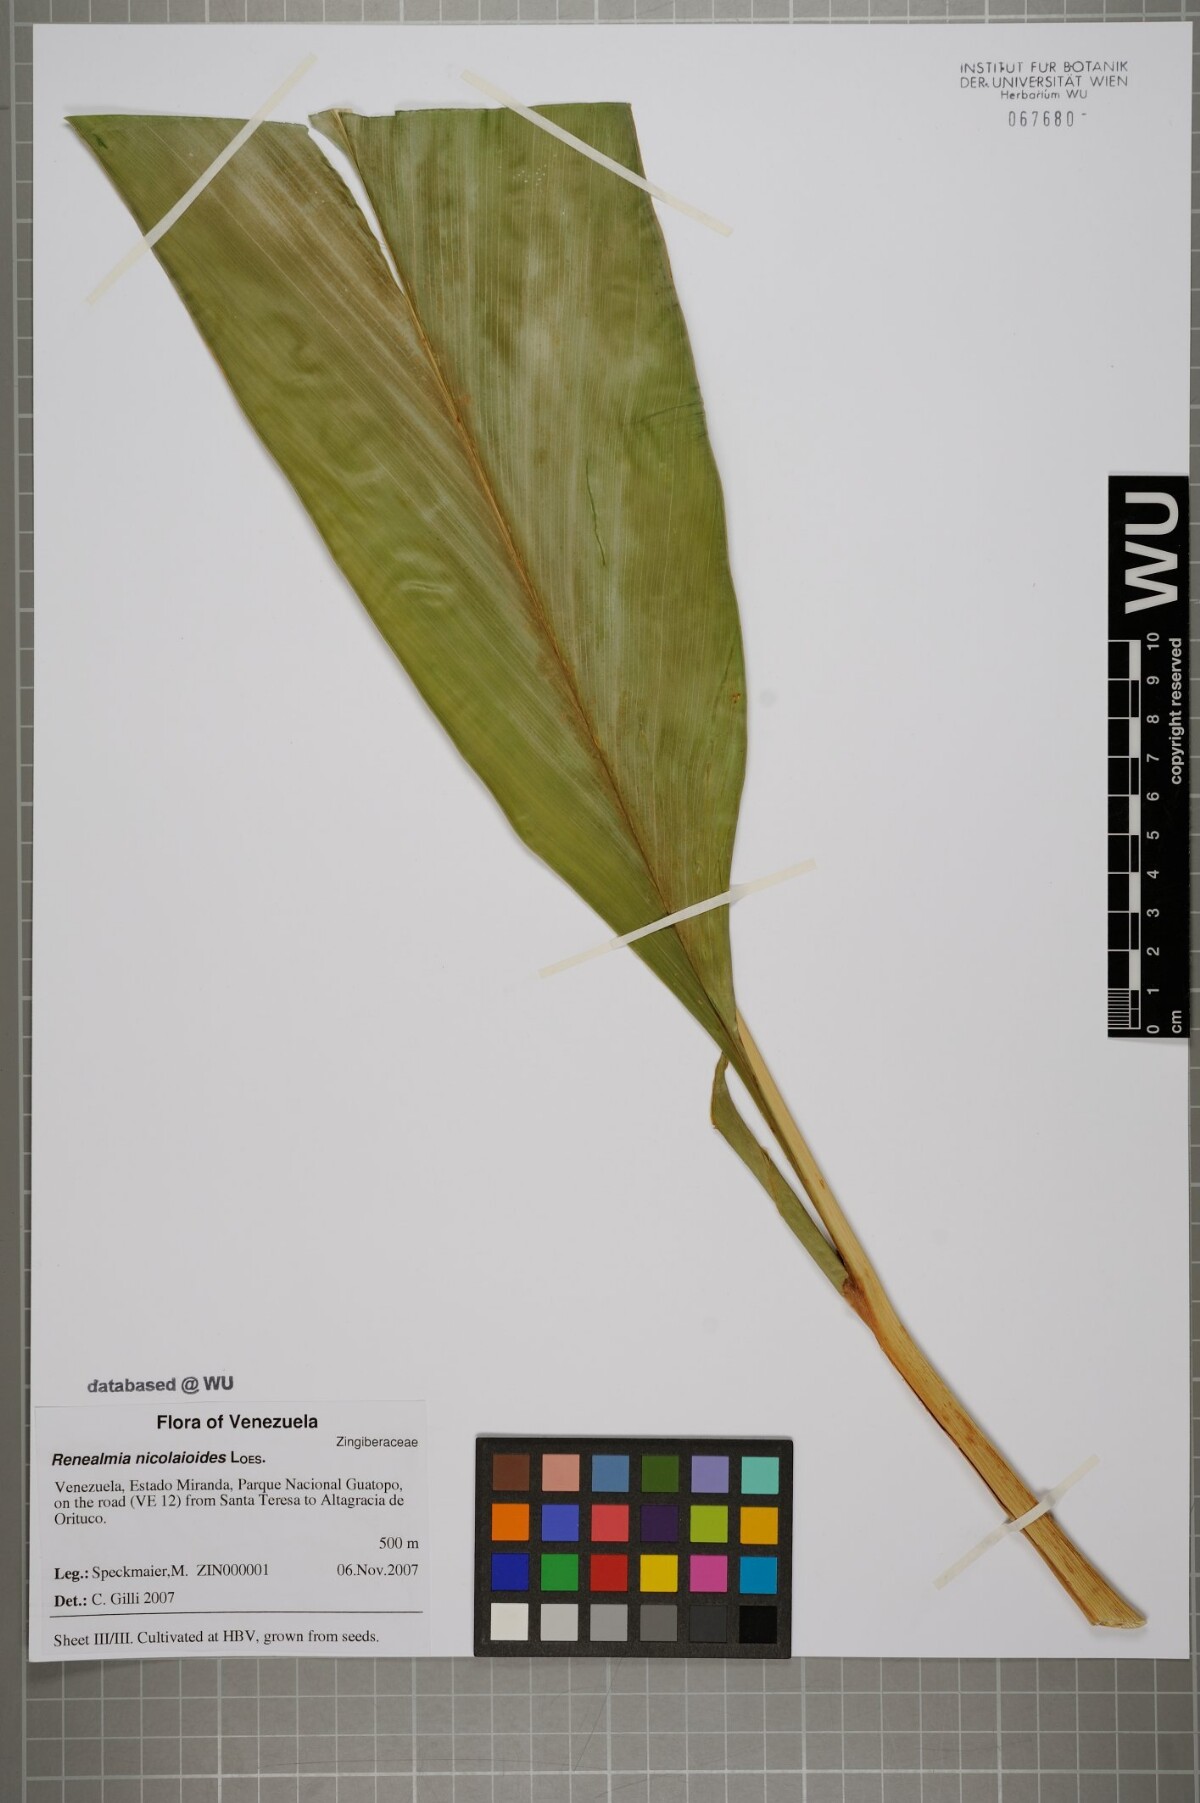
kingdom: Plantae
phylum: Tracheophyta
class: Liliopsida
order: Zingiberales
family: Zingiberaceae
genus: Renealmia
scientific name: Renealmia nicolaioides
